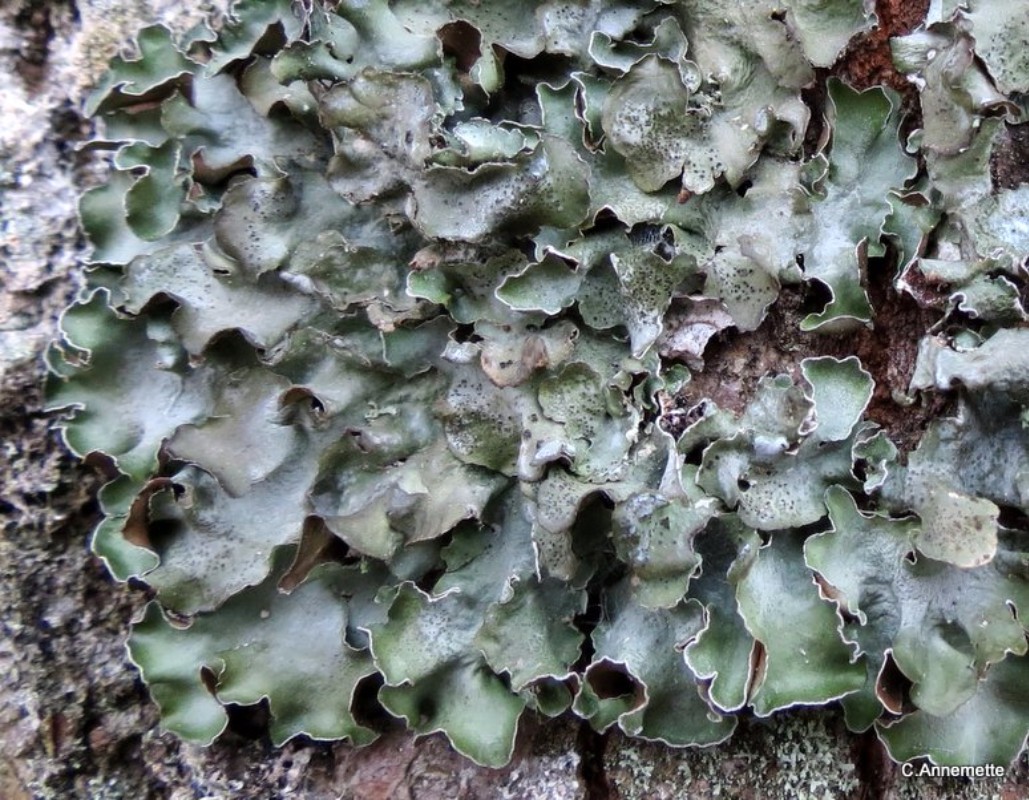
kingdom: Fungi
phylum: Ascomycota
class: Lecanoromycetes
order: Lecanorales
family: Parmeliaceae
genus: Pleurosticta
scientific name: Pleurosticta acetabulum
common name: stor skållav
